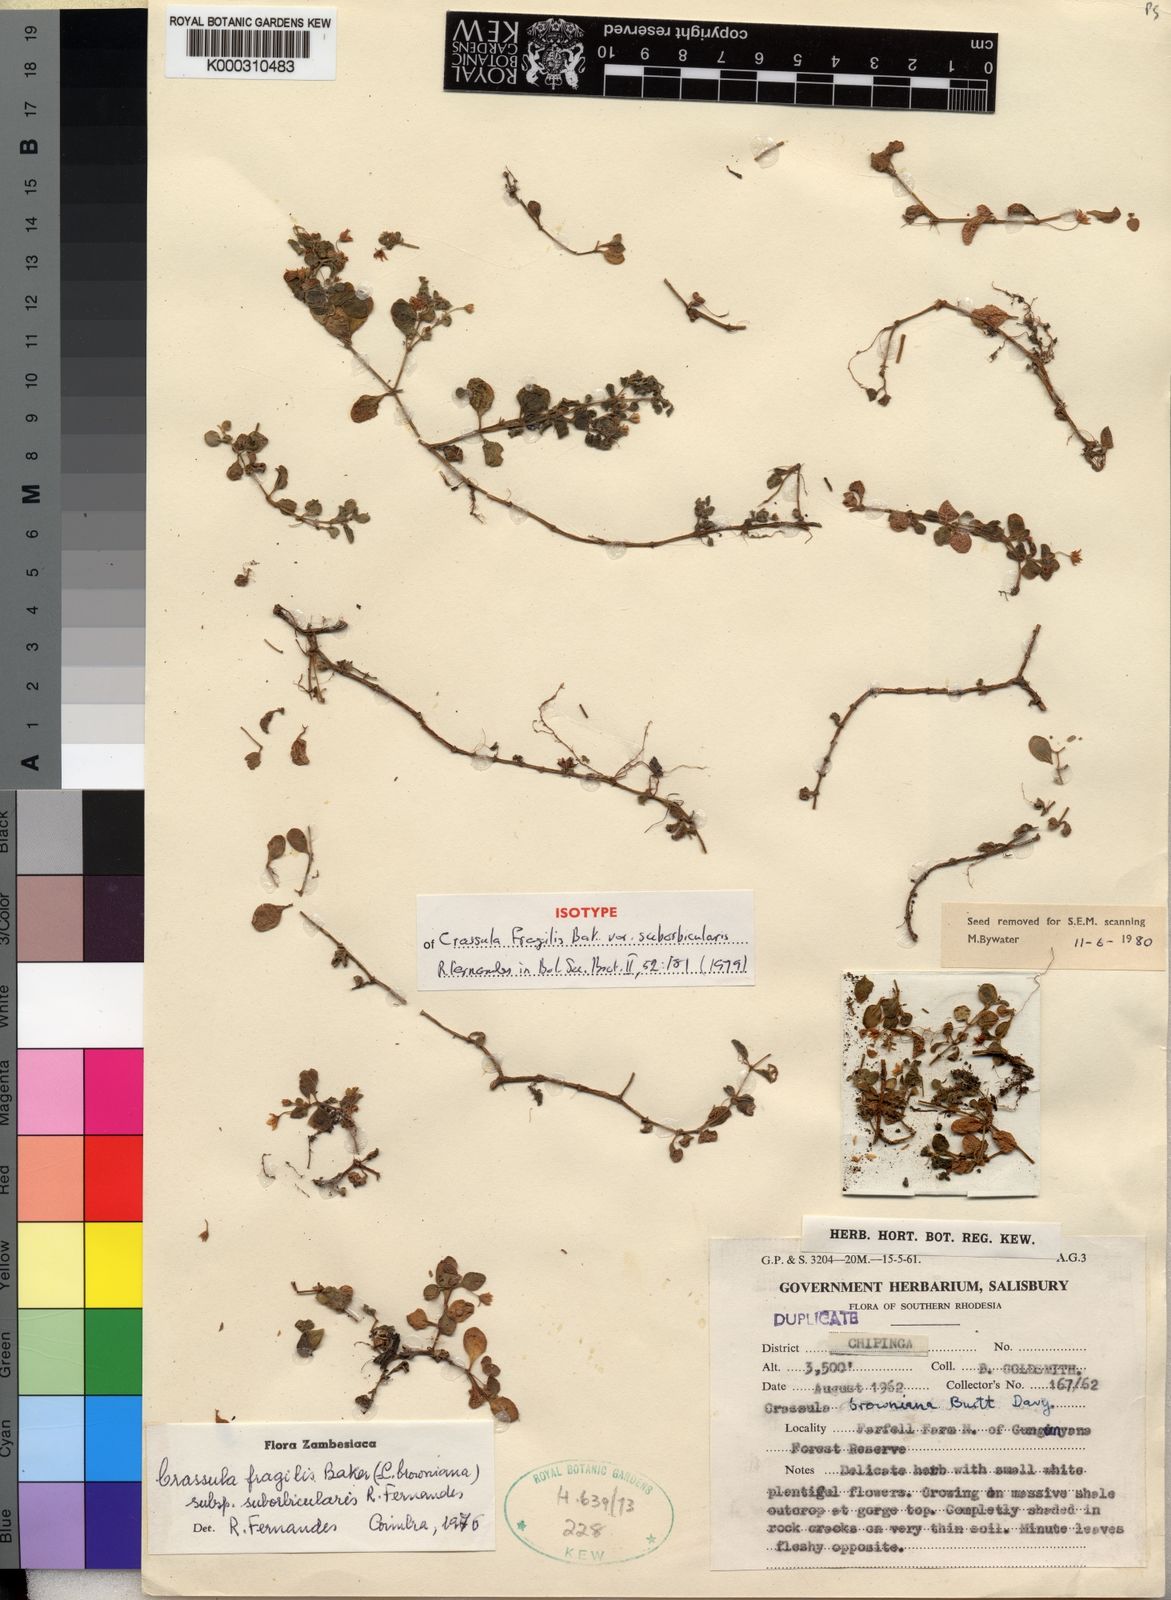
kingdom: Plantae
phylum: Tracheophyta
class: Magnoliopsida
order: Saxifragales
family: Crassulaceae
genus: Crassula
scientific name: Crassula expansa
